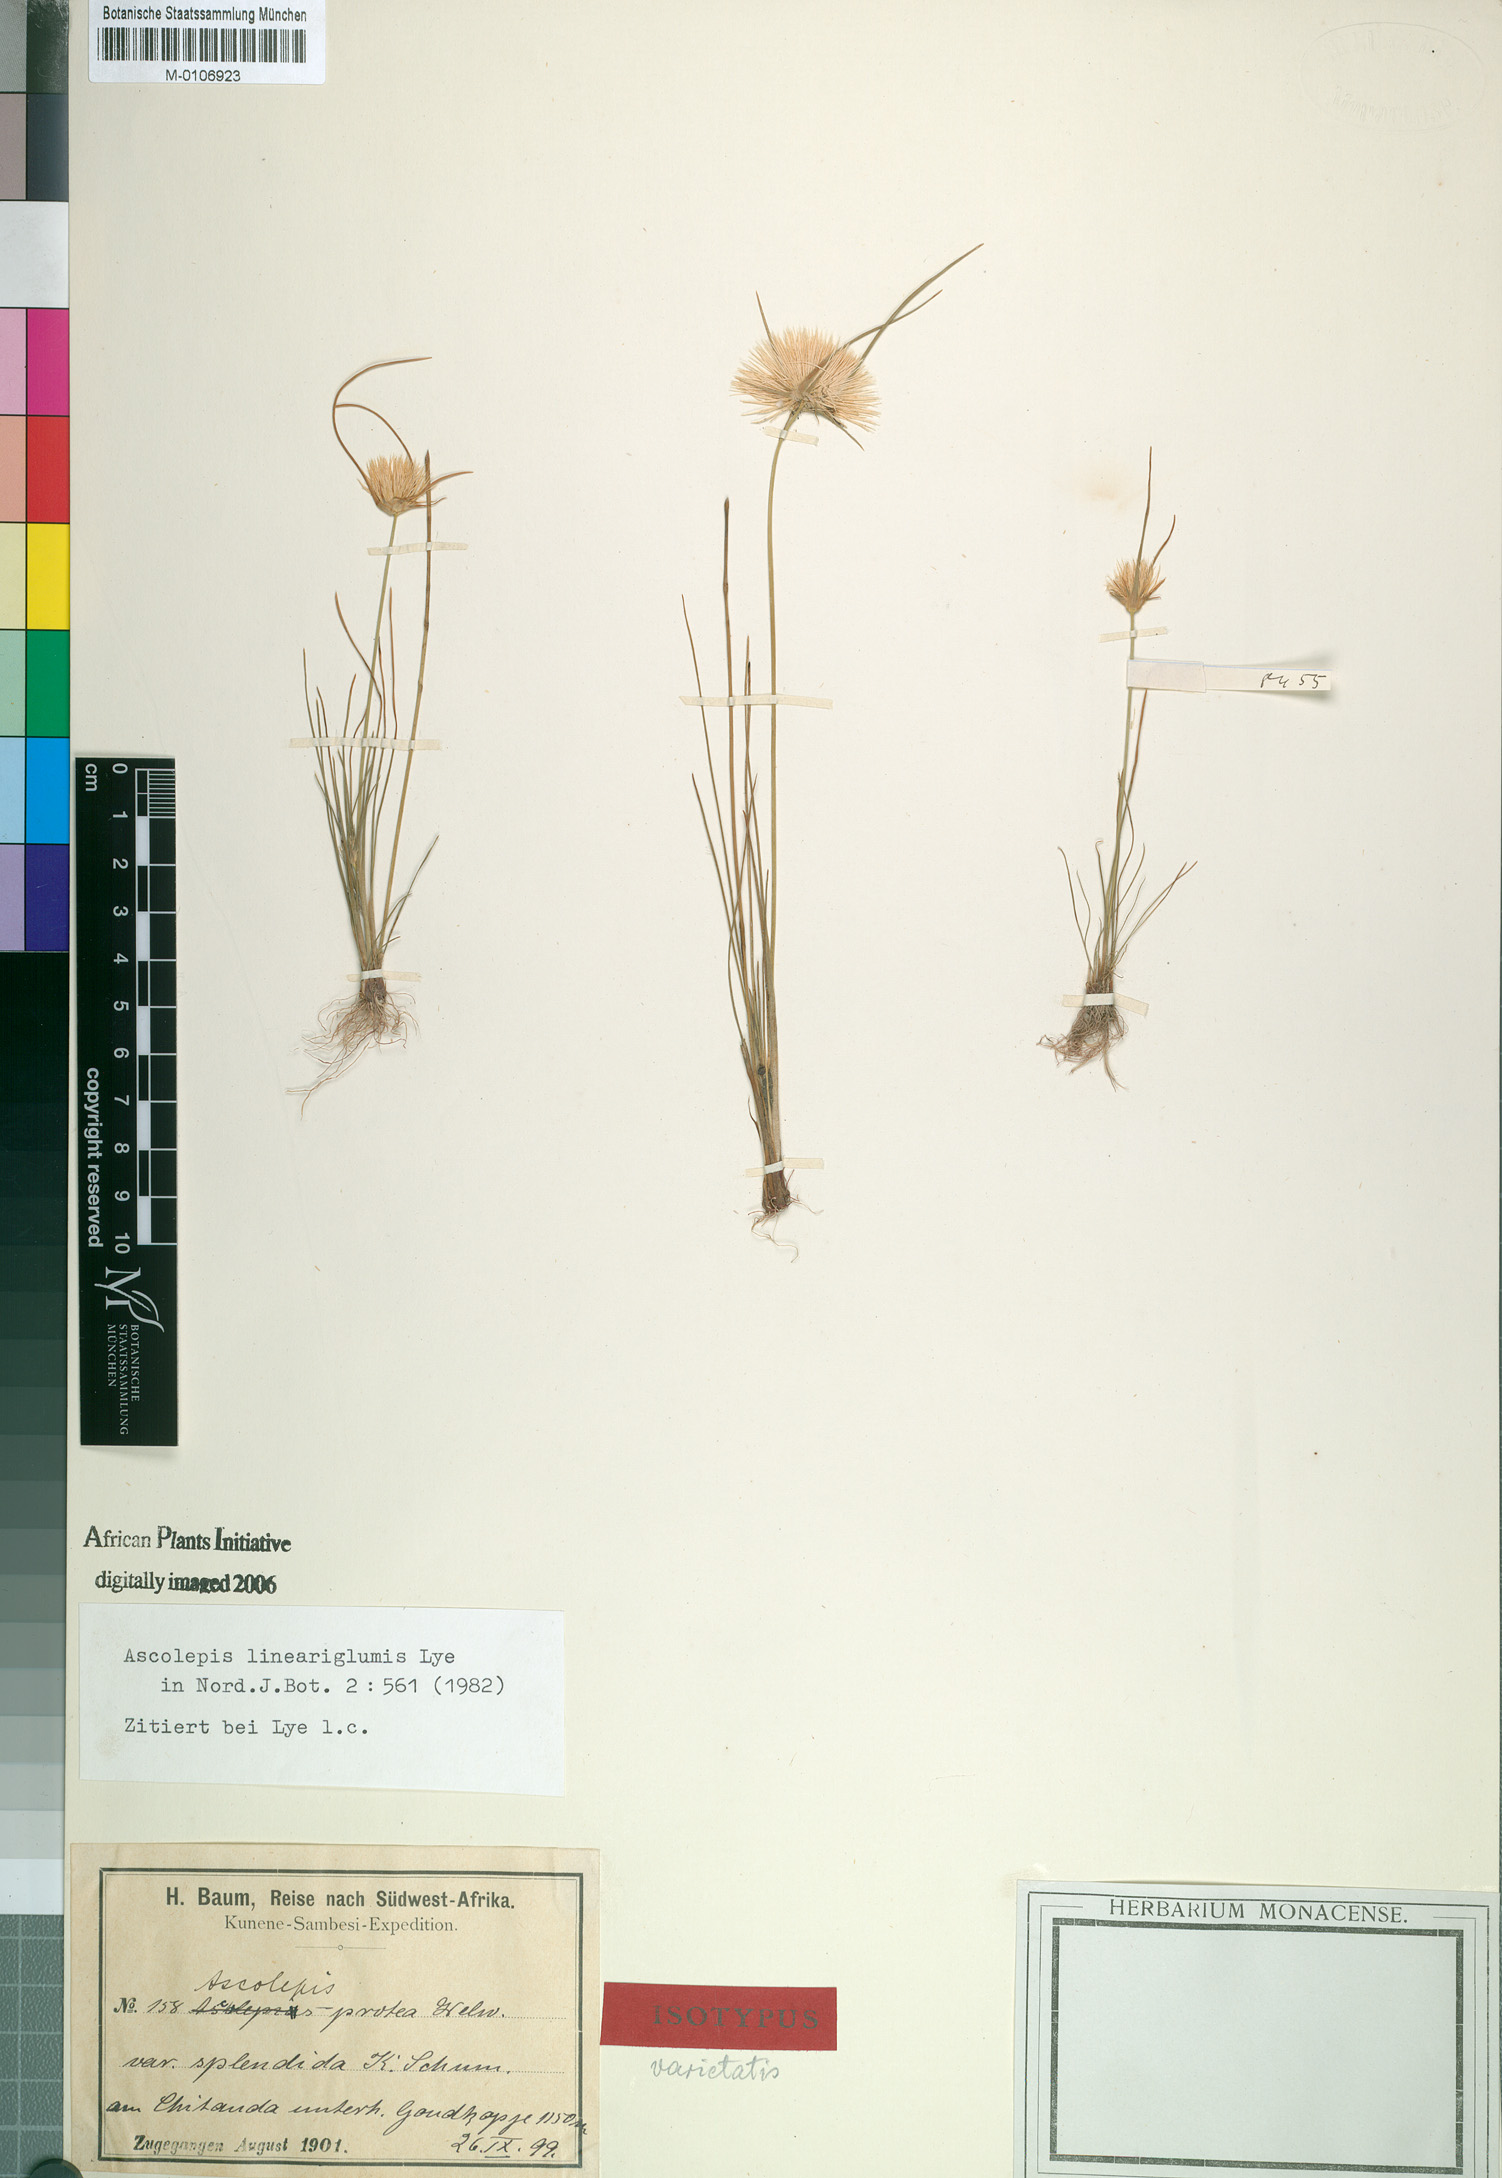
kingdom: Plantae
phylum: Tracheophyta
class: Liliopsida
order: Poales
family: Cyperaceae
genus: Cyperus
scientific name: Cyperus proteus
